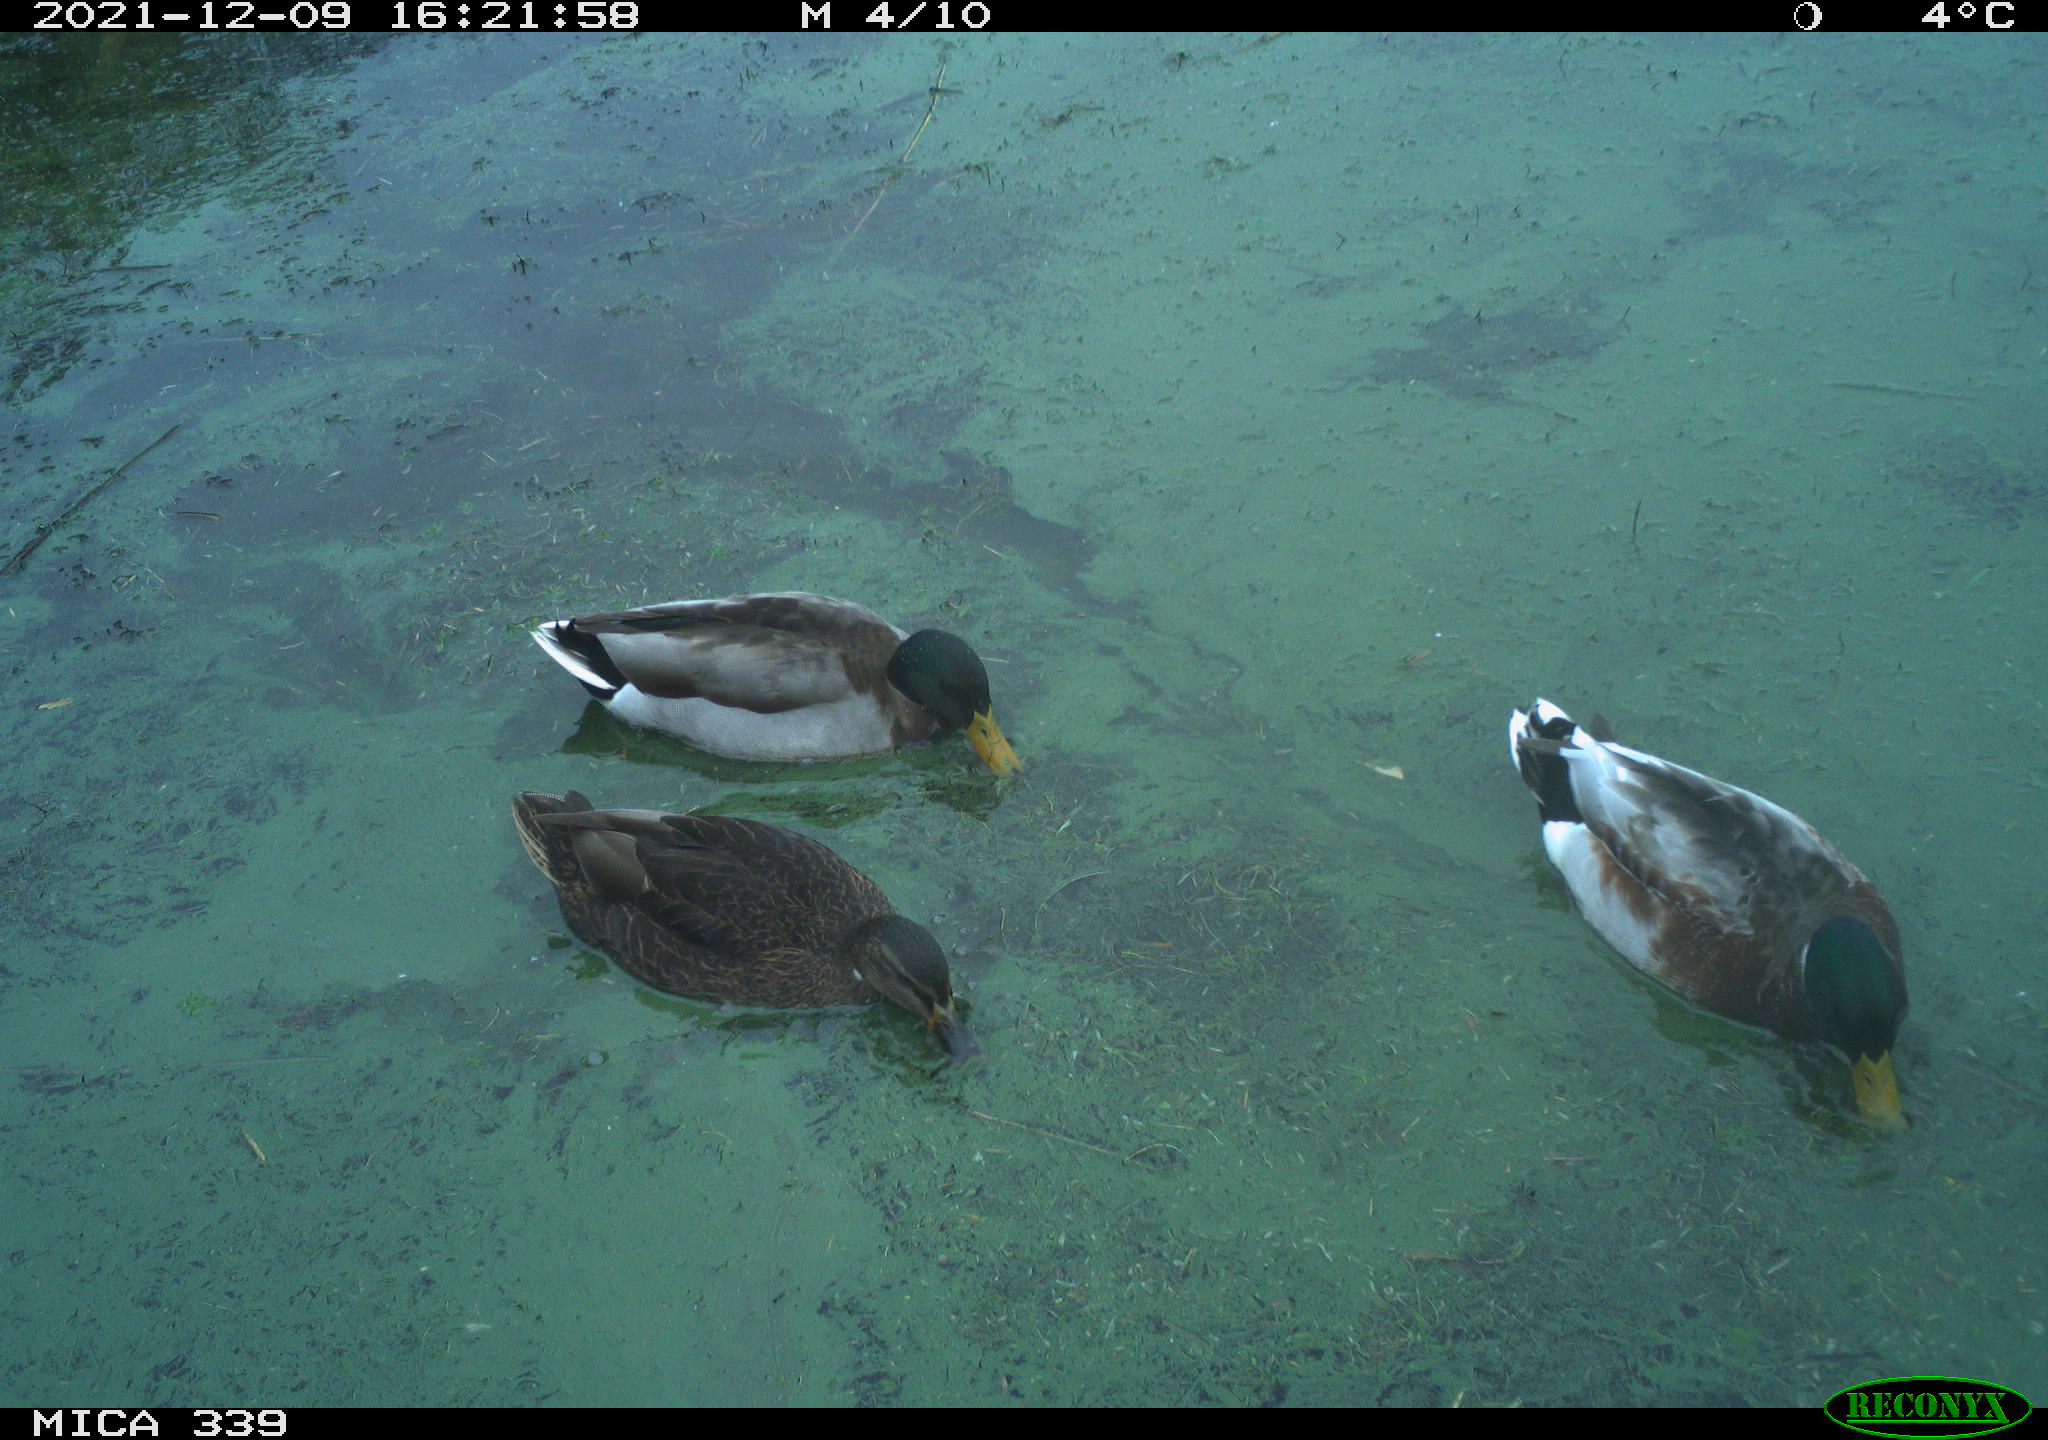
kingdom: Animalia
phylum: Chordata
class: Aves
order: Anseriformes
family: Anatidae
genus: Anas
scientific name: Anas platyrhynchos
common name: Mallard
